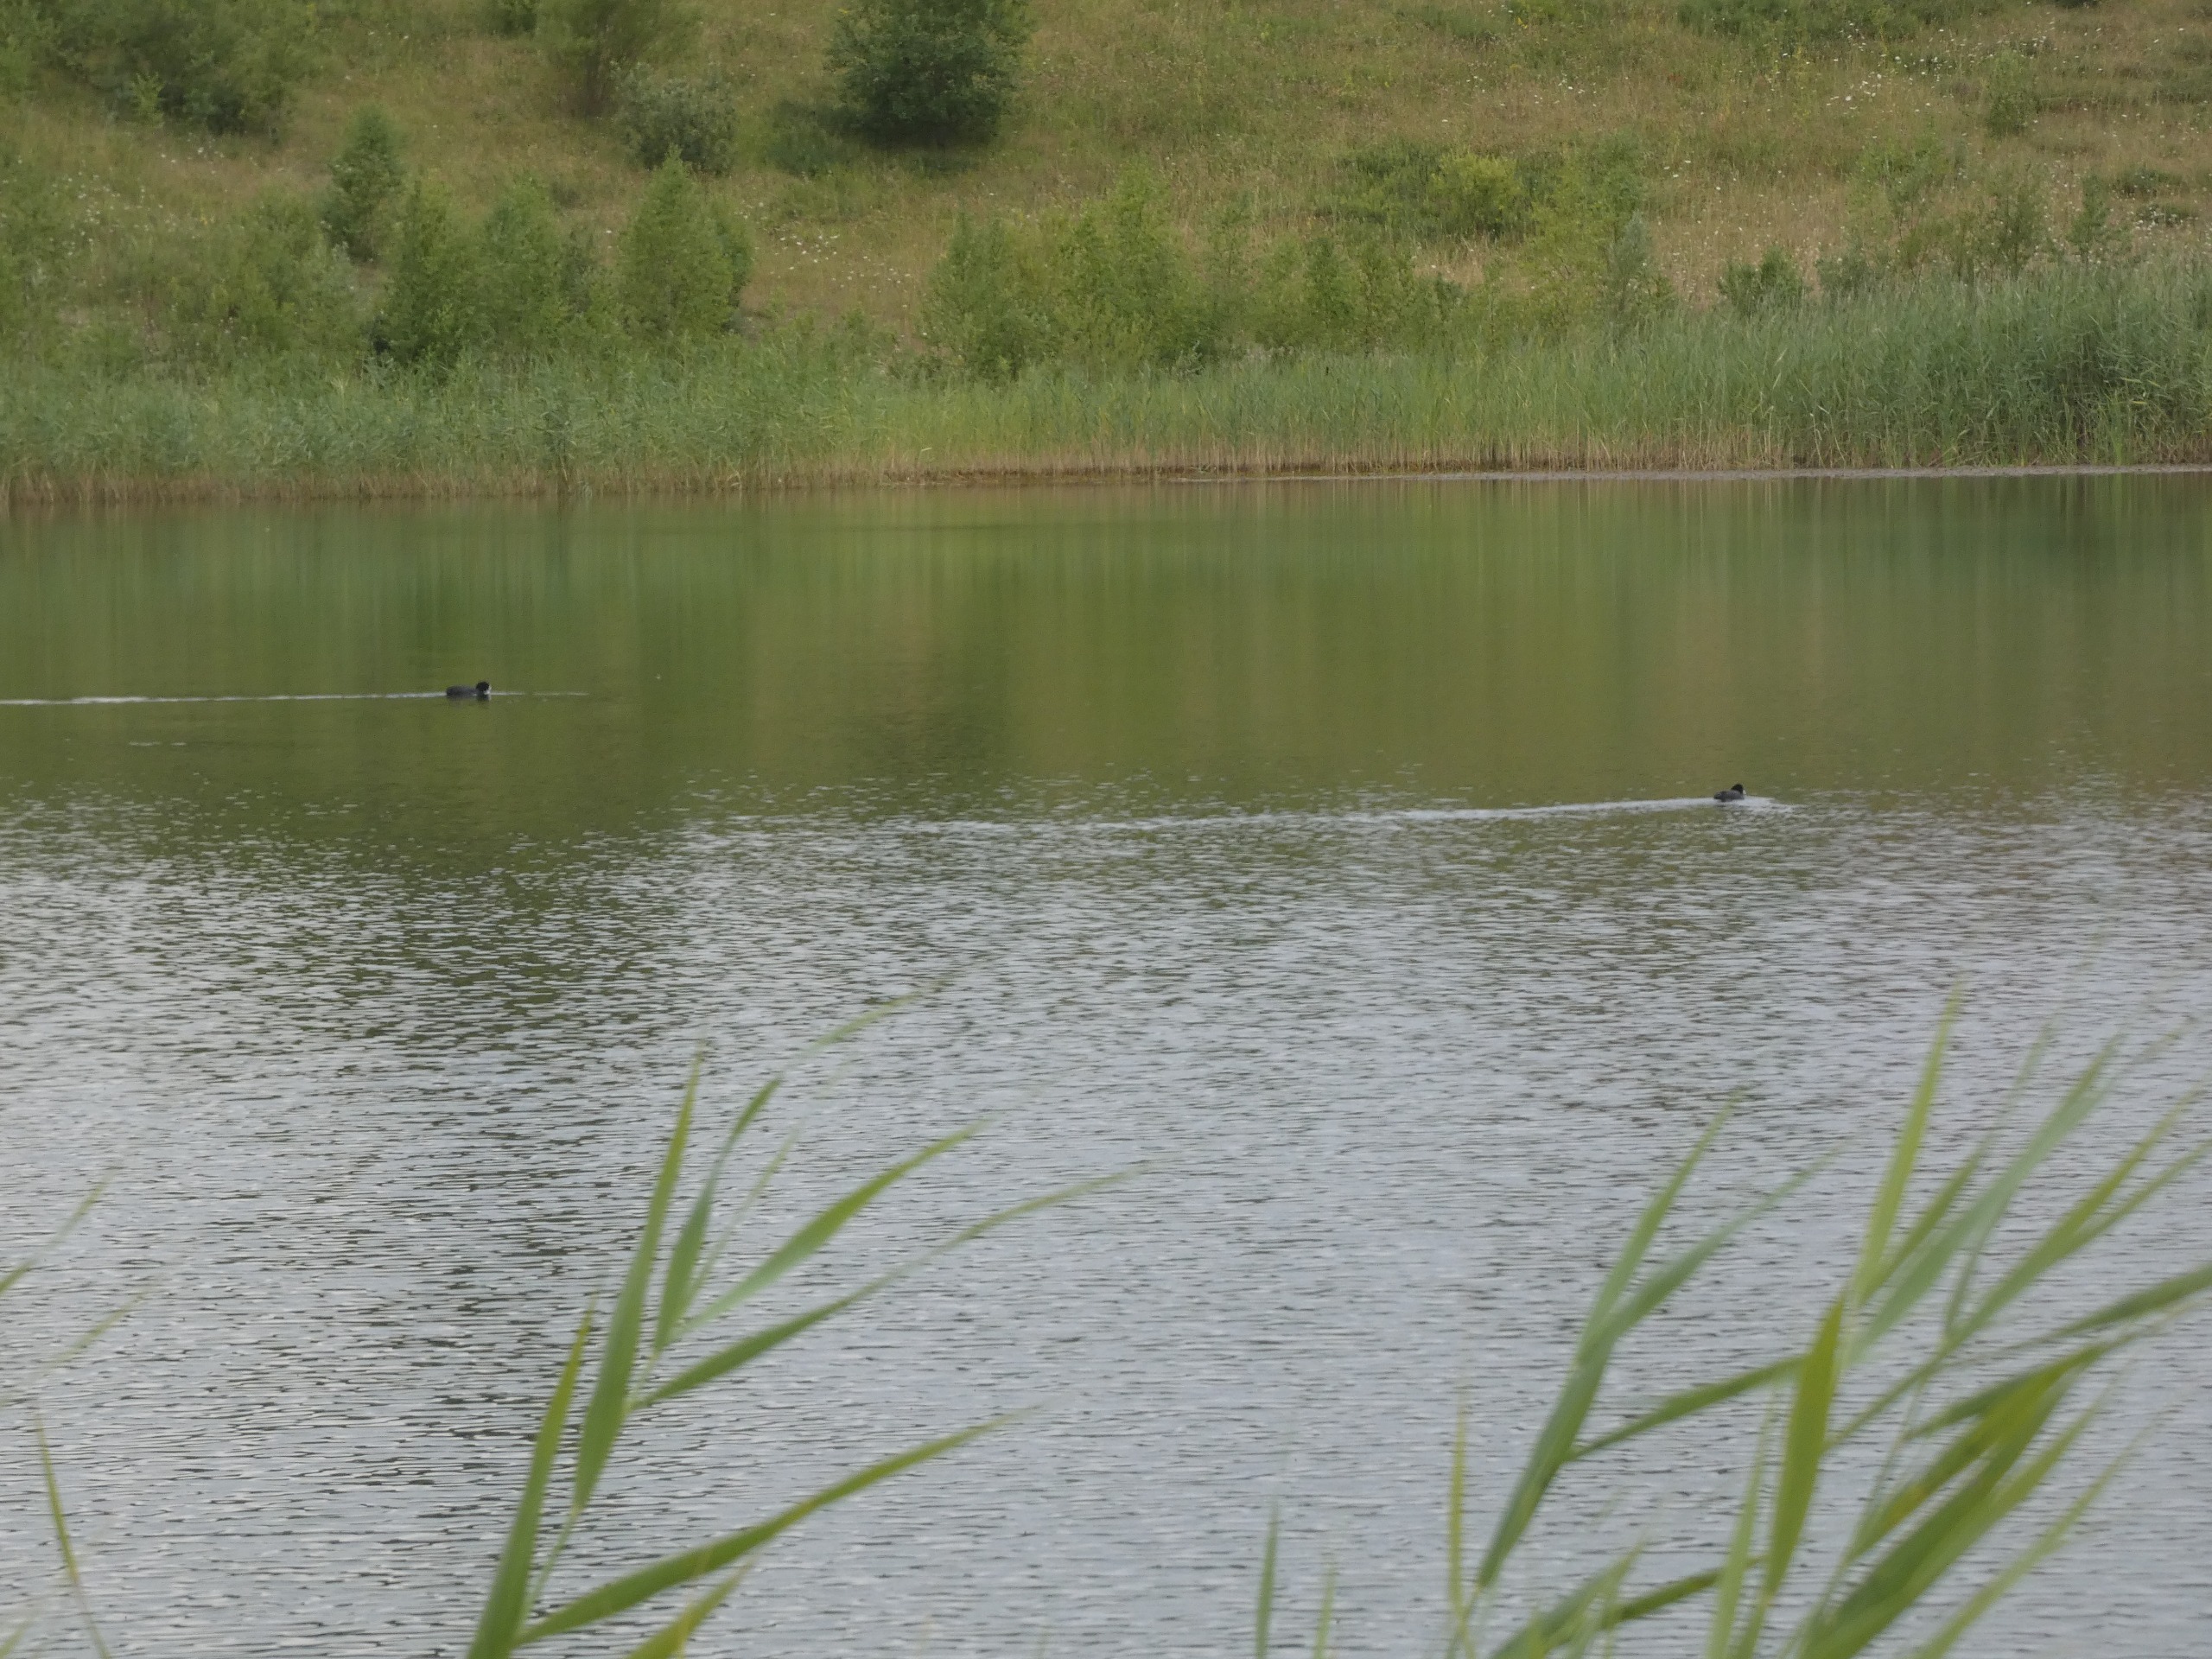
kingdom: Animalia
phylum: Chordata
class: Aves
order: Gruiformes
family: Rallidae
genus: Fulica
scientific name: Fulica atra
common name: Blishøne
